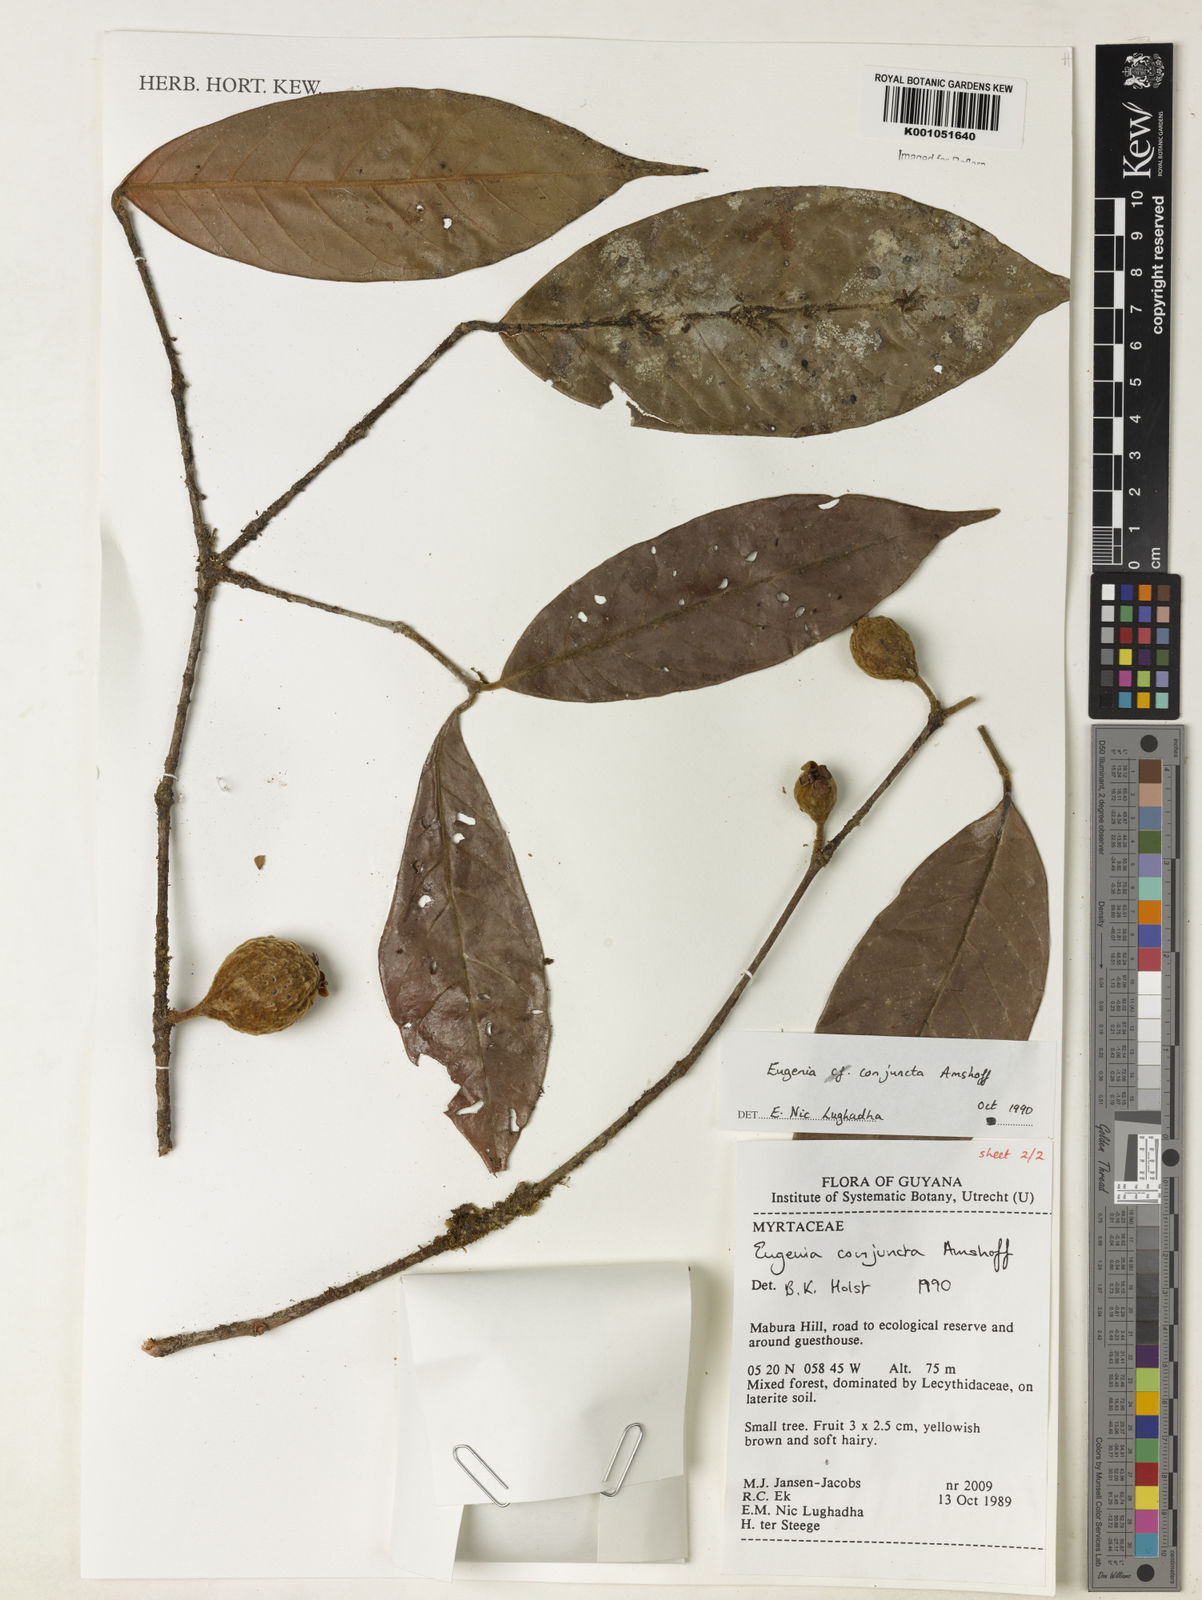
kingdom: Plantae
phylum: Tracheophyta
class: Magnoliopsida
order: Myrtales
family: Myrtaceae
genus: Eugenia
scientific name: Eugenia conjuncta
